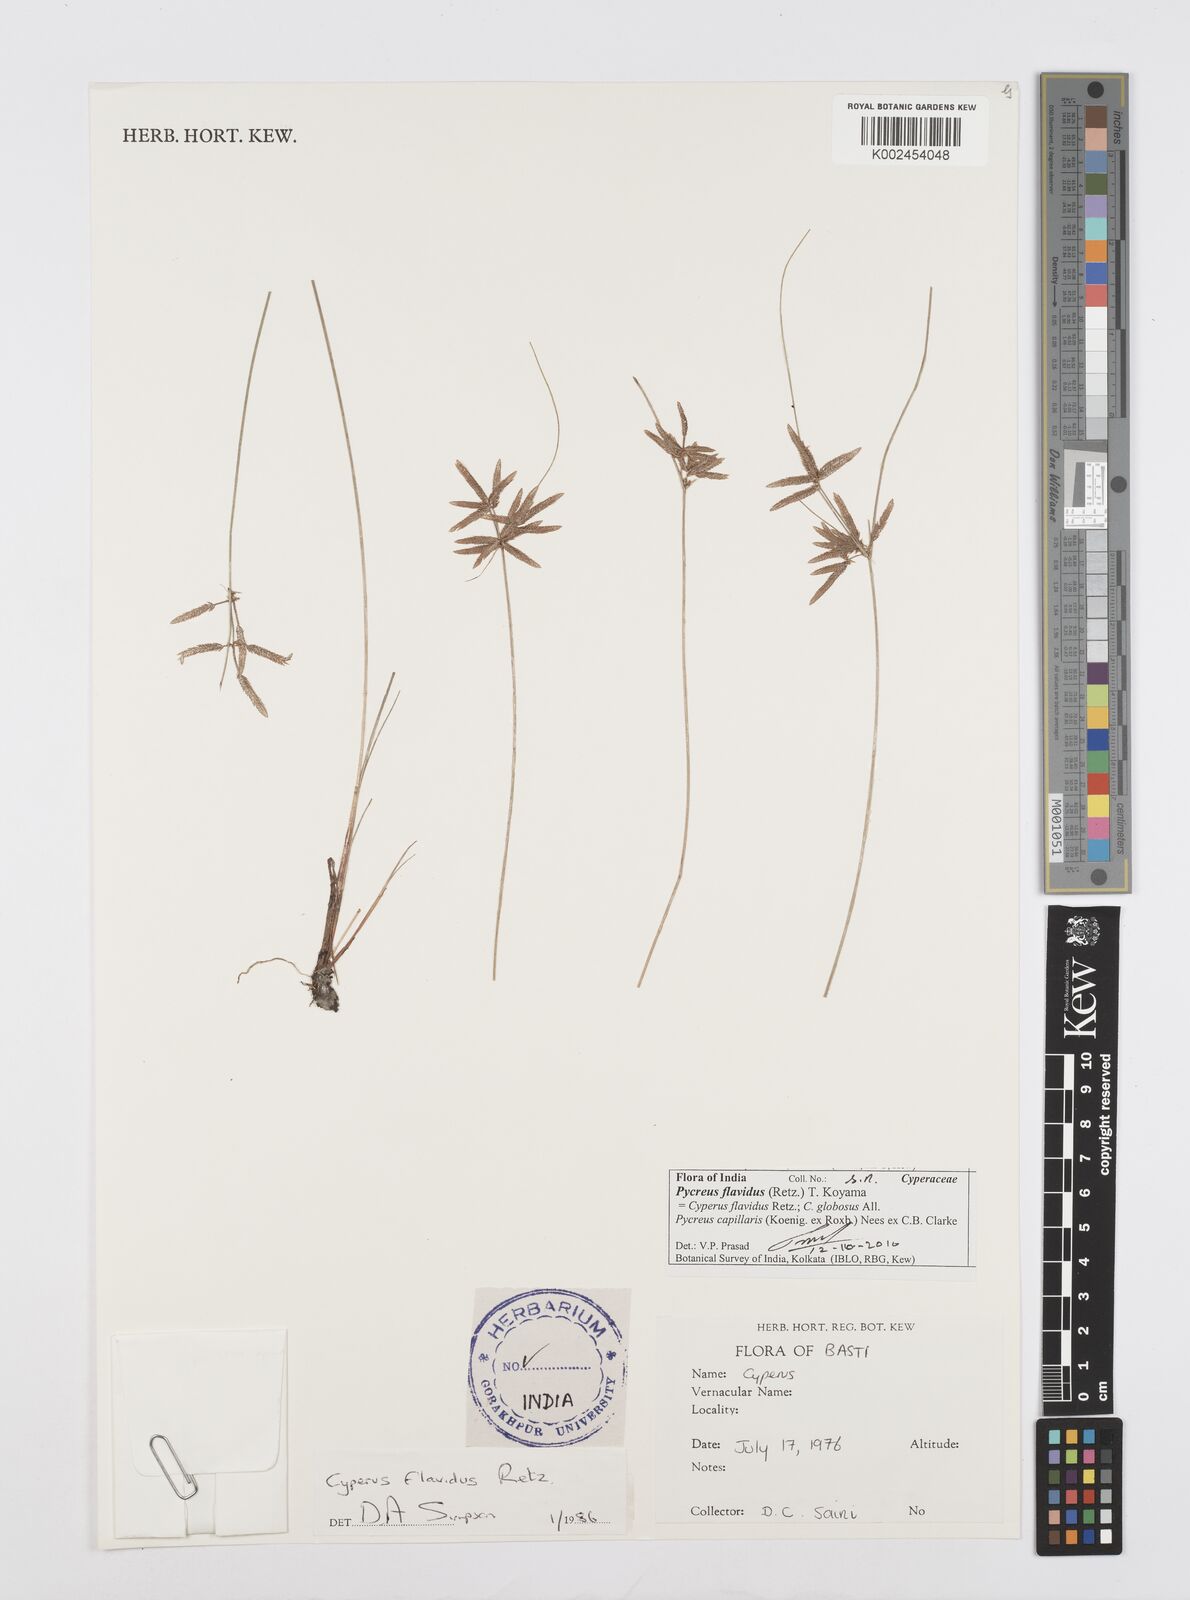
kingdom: Plantae
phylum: Tracheophyta
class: Liliopsida
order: Poales
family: Cyperaceae
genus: Cyperus
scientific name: Cyperus flavidus
